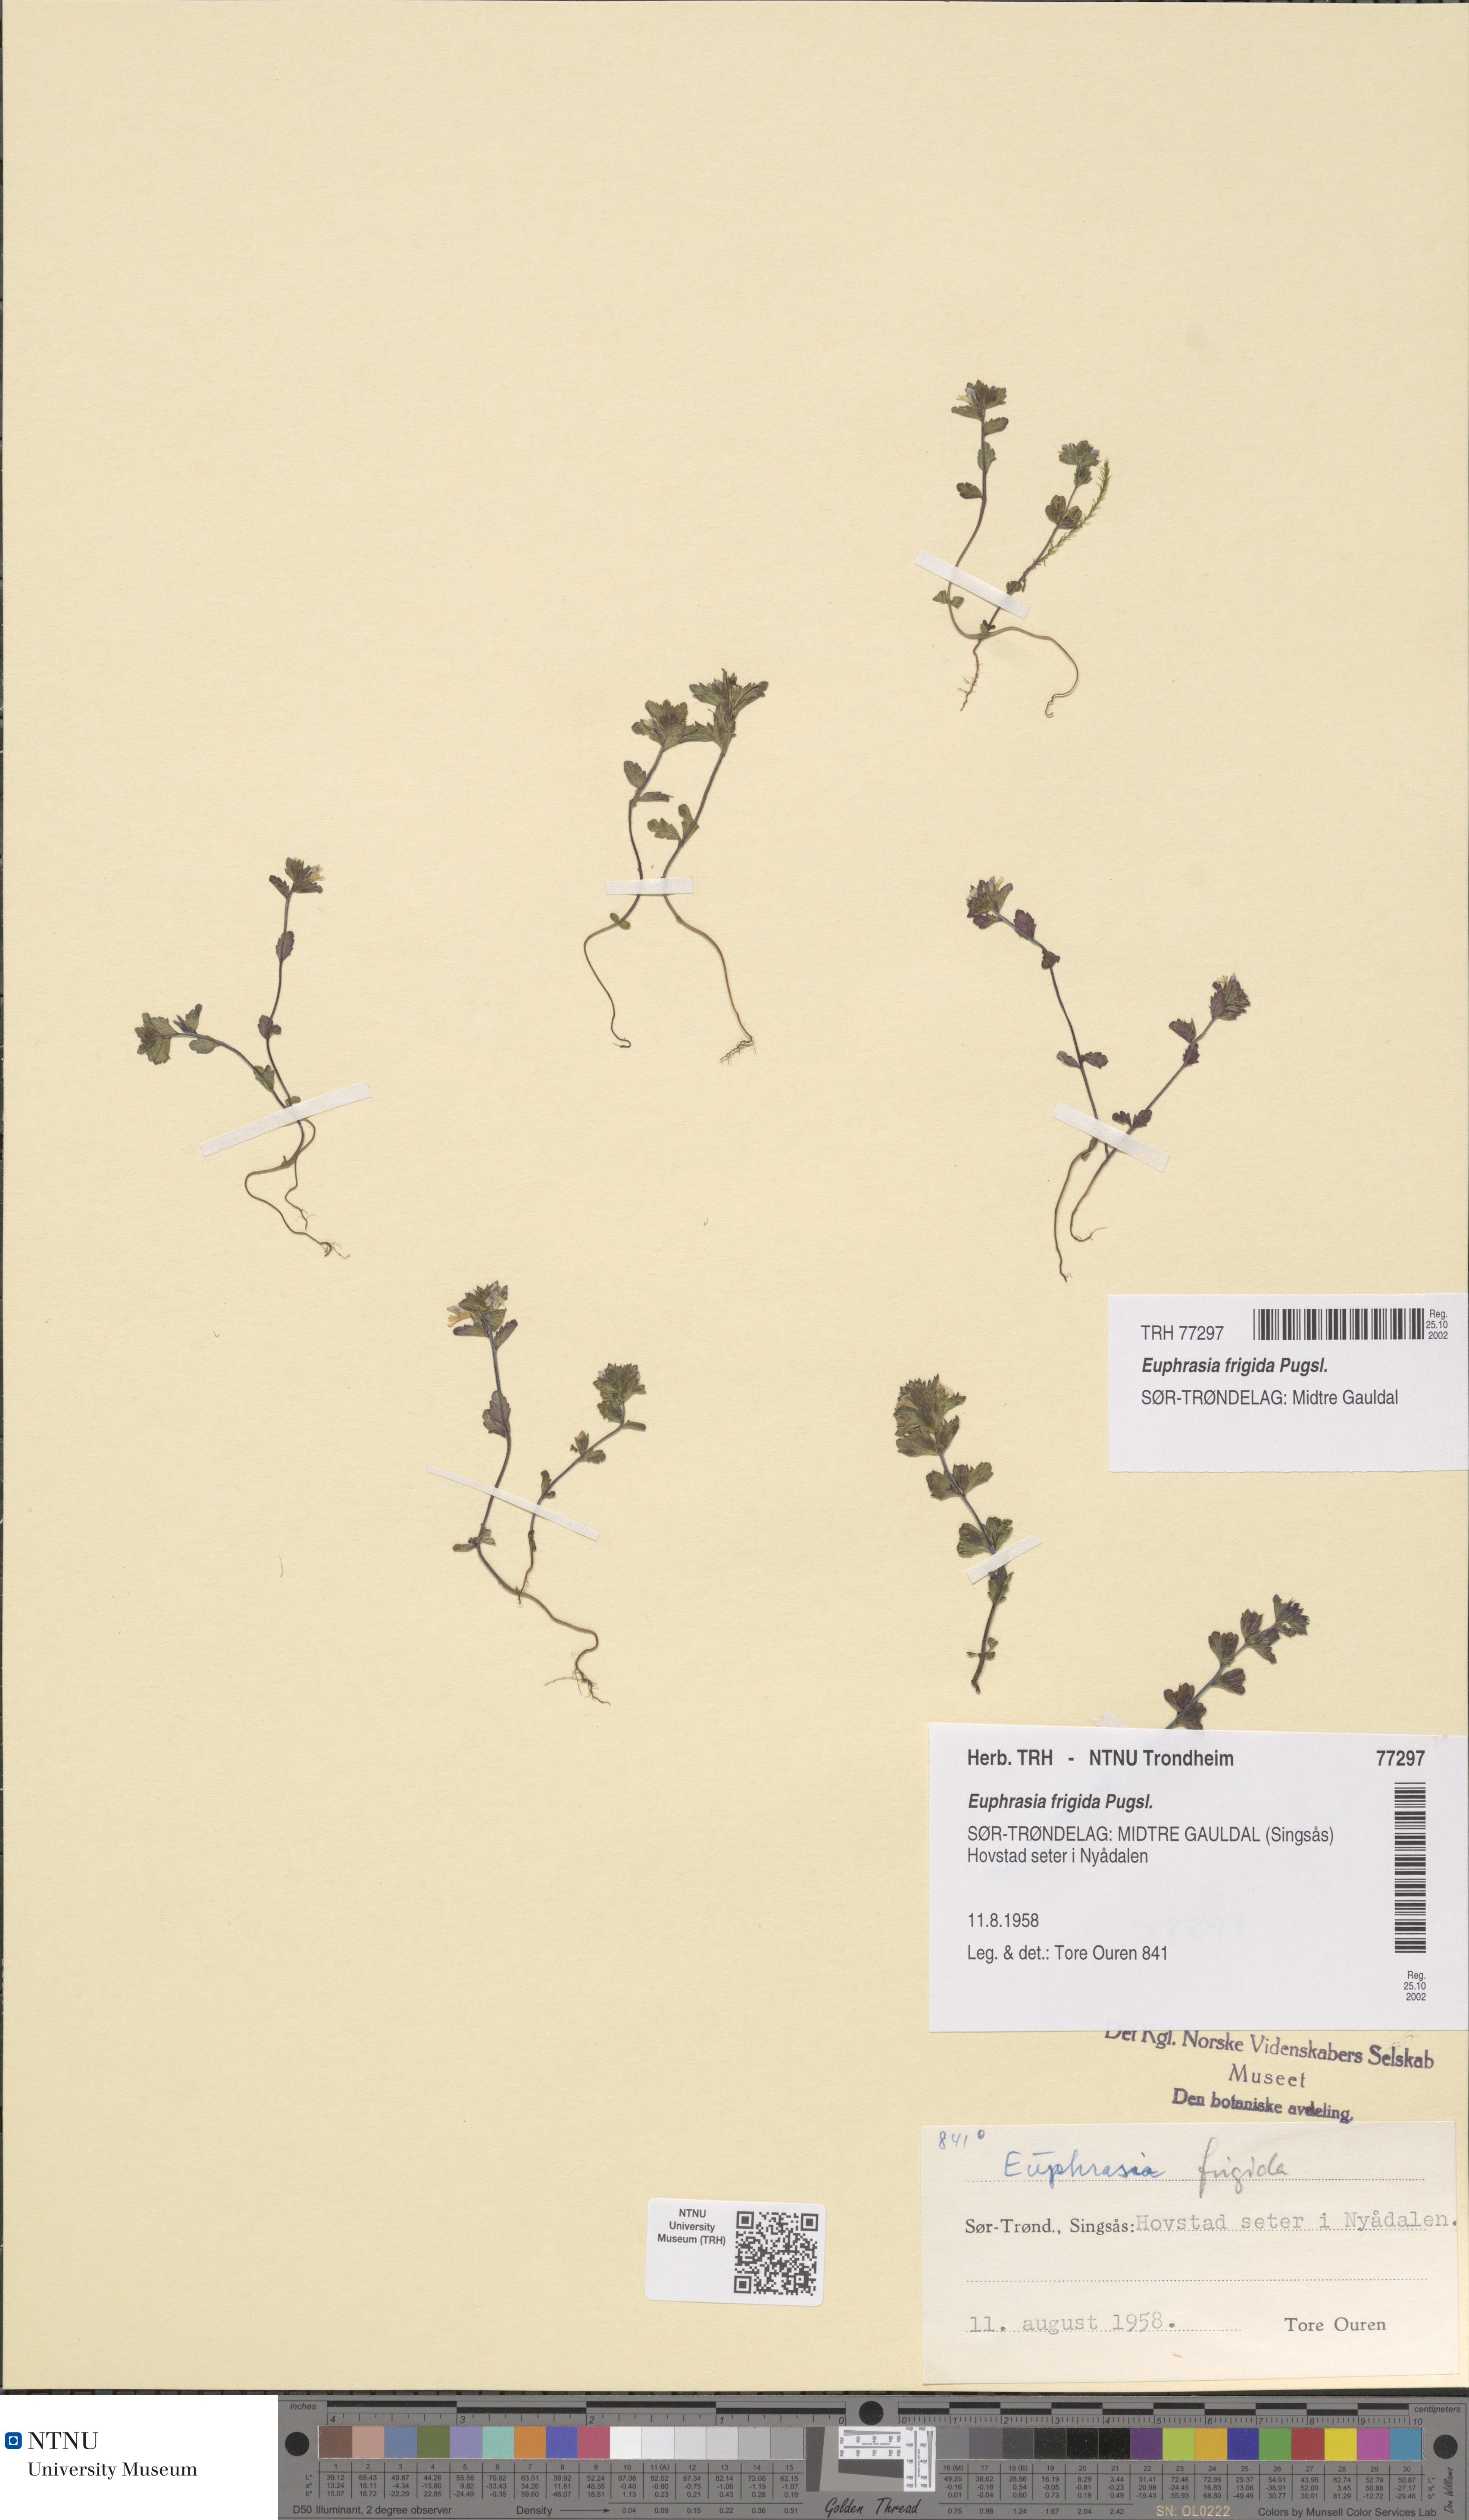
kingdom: Plantae
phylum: Tracheophyta
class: Magnoliopsida
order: Lamiales
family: Orobanchaceae
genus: Euphrasia
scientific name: Euphrasia wettsteinii
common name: Wettstein's eyebright
